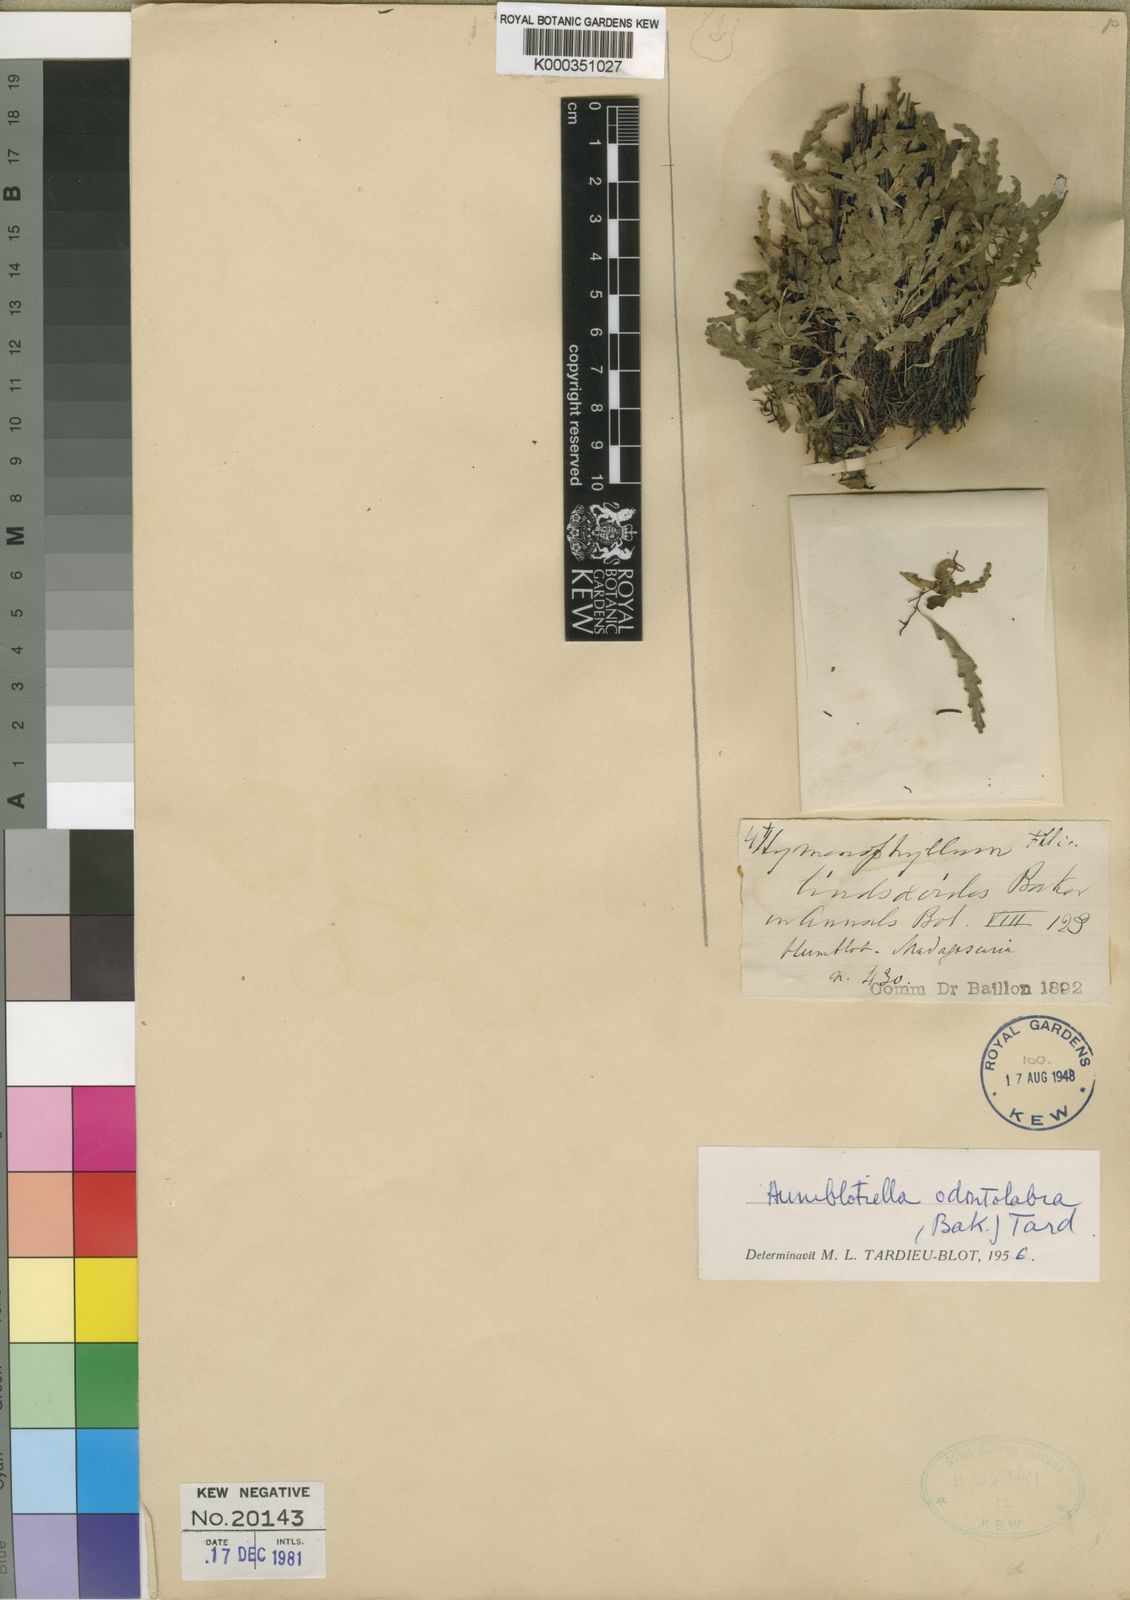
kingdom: Plantae
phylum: Tracheophyta
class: Polypodiopsida
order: Polypodiales
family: Lindsaeaceae
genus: Odontosoria
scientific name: Odontosoria odontolabia
